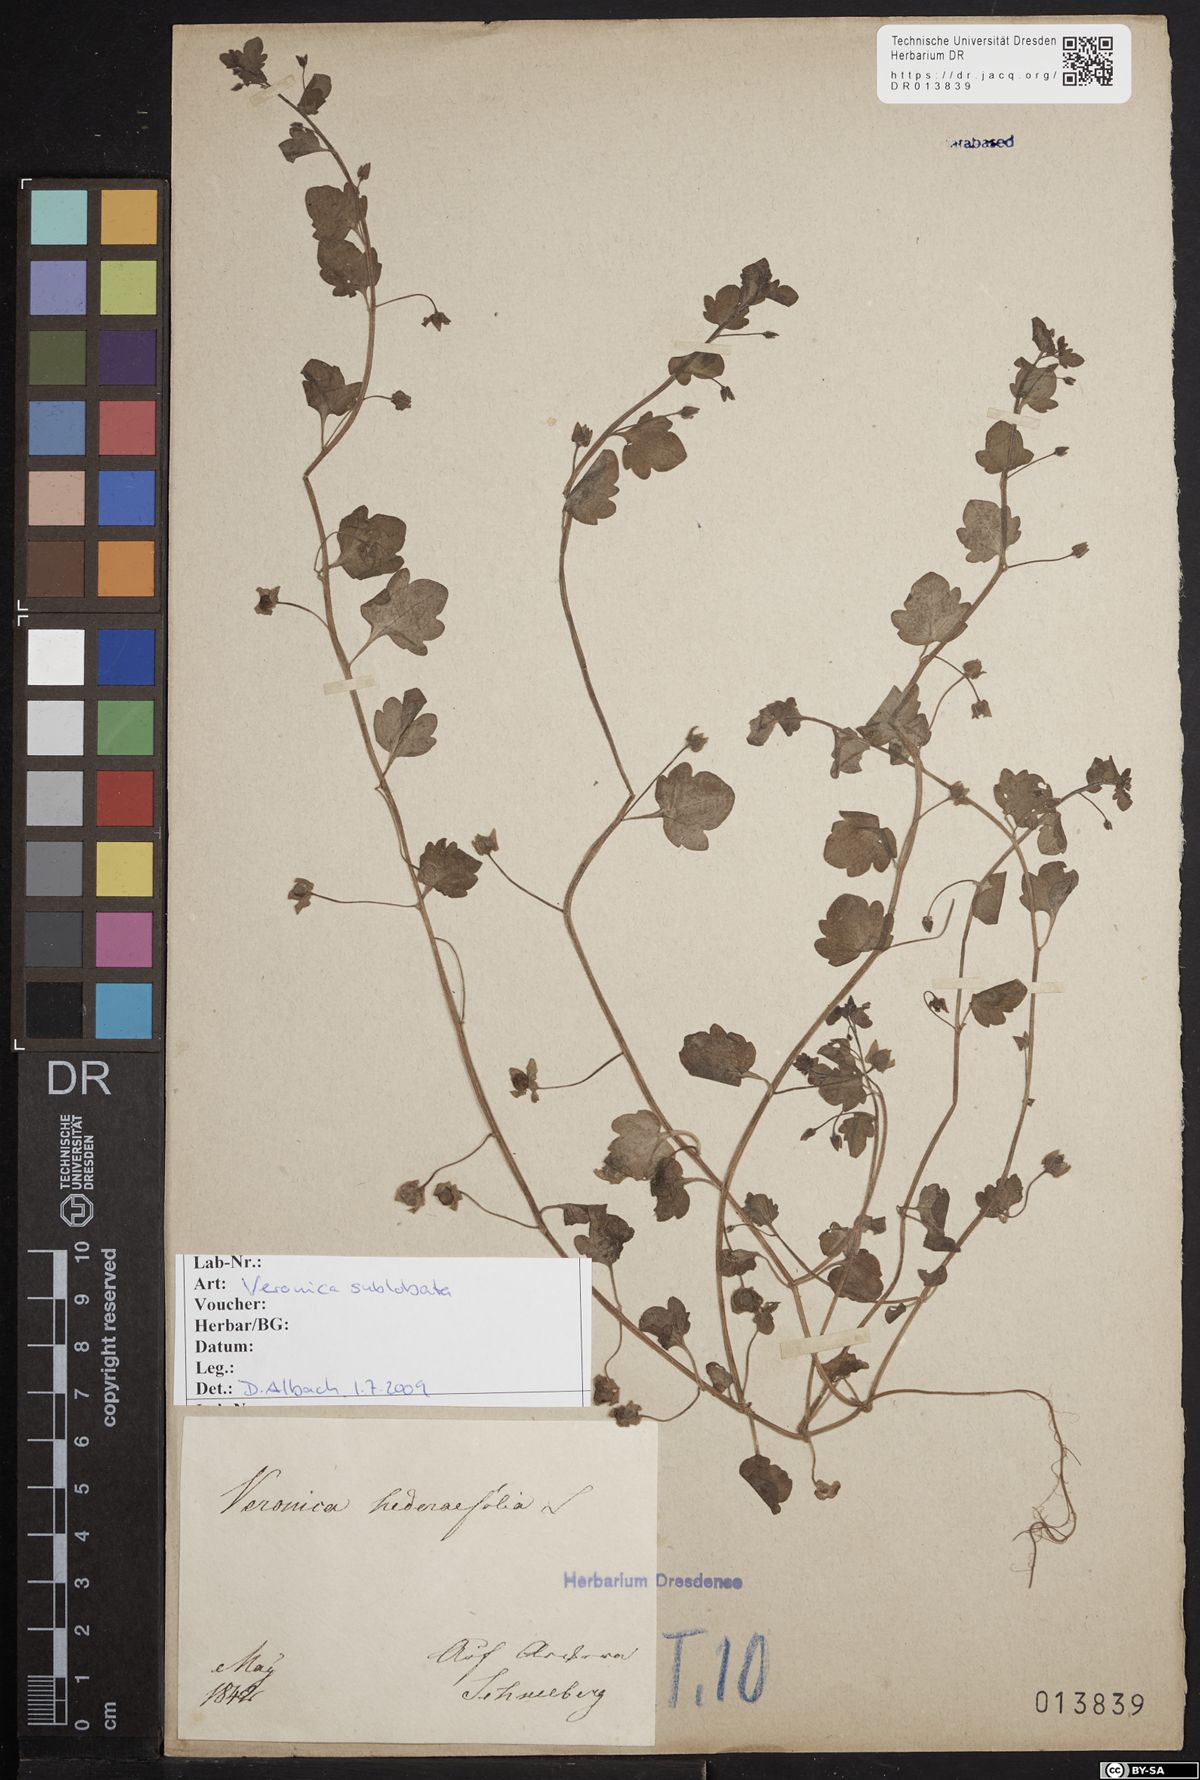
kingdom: Plantae
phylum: Tracheophyta
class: Magnoliopsida
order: Lamiales
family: Plantaginaceae
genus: Veronica
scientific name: Veronica sublobata
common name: False ivy-leaved speedwell
